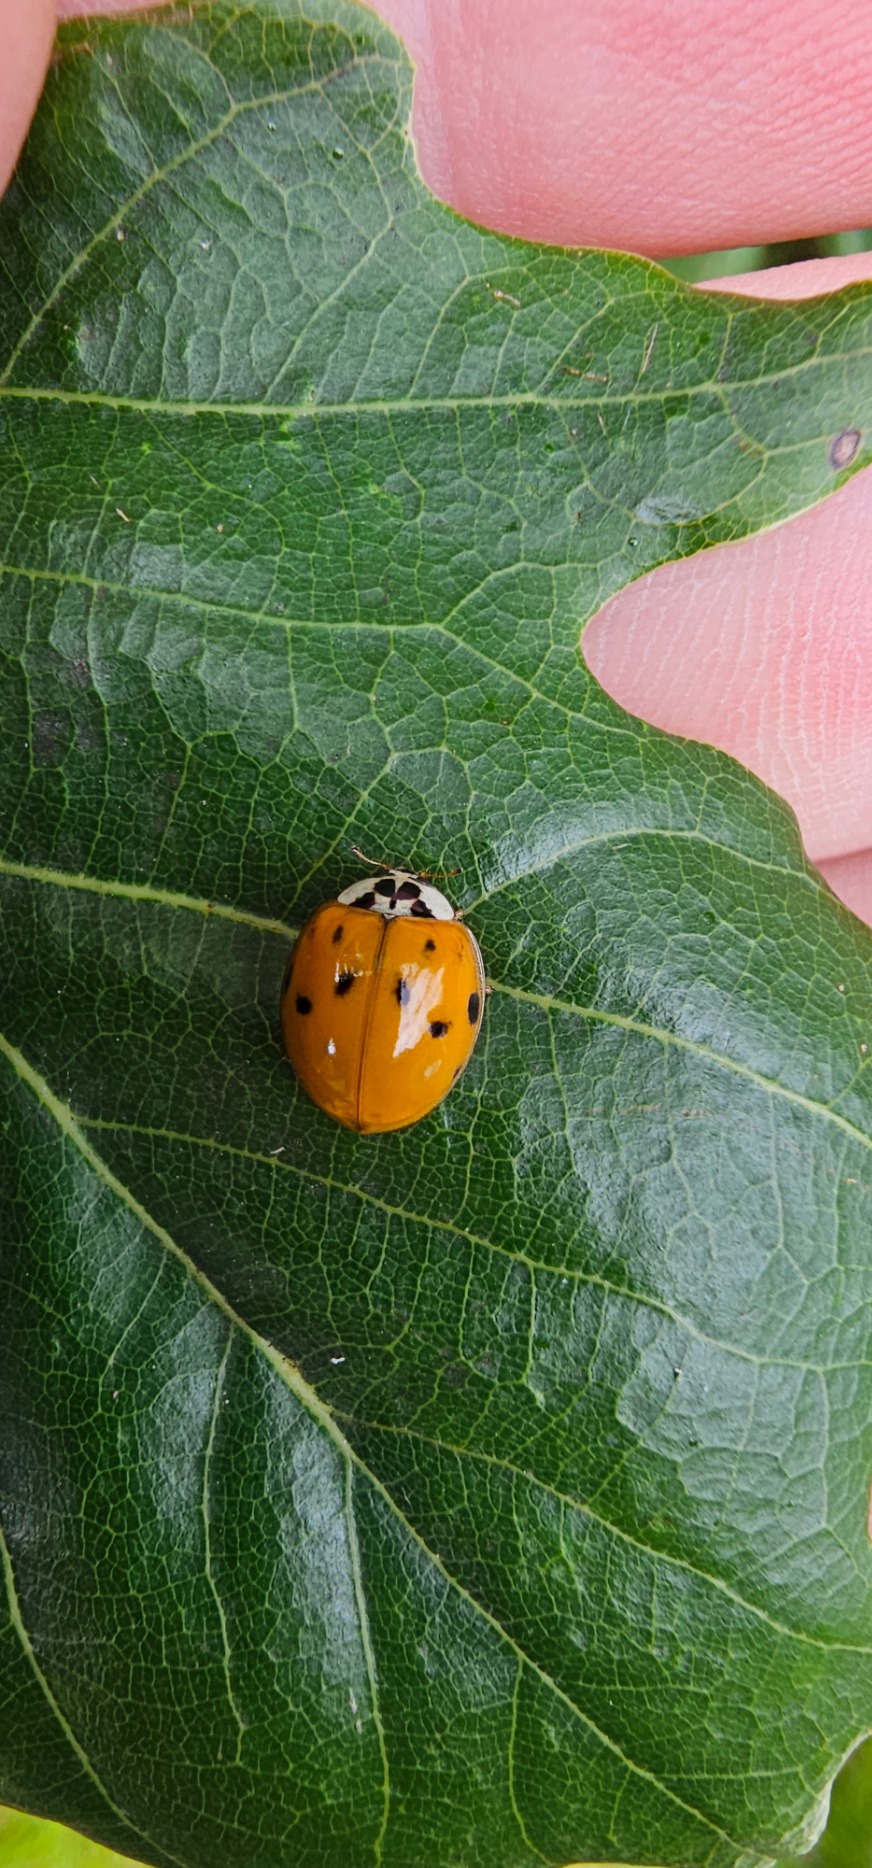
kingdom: Animalia
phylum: Arthropoda
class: Insecta
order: Coleoptera
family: Coccinellidae
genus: Harmonia
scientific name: Harmonia axyridis
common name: Harlekinmariehøne
